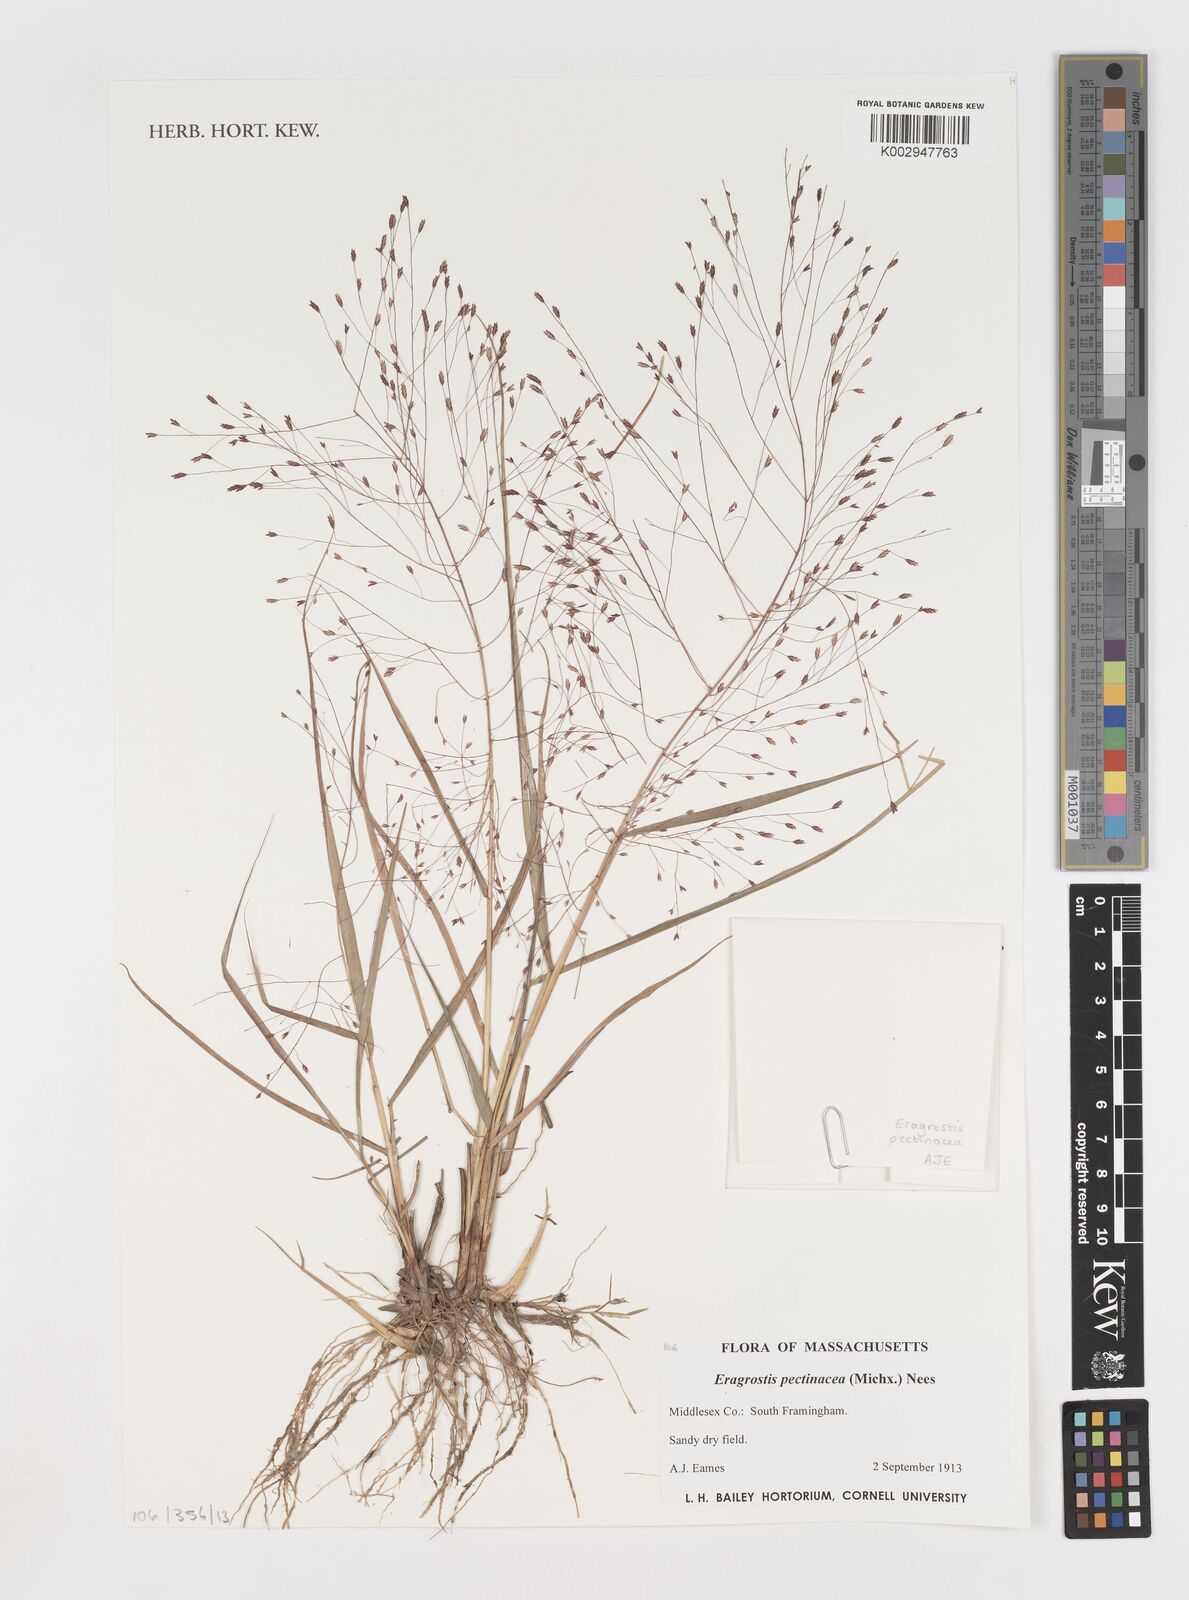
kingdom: Plantae
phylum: Tracheophyta
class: Liliopsida
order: Poales
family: Poaceae
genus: Eragrostis
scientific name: Eragrostis pectinacea
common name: Tufted lovegrass
